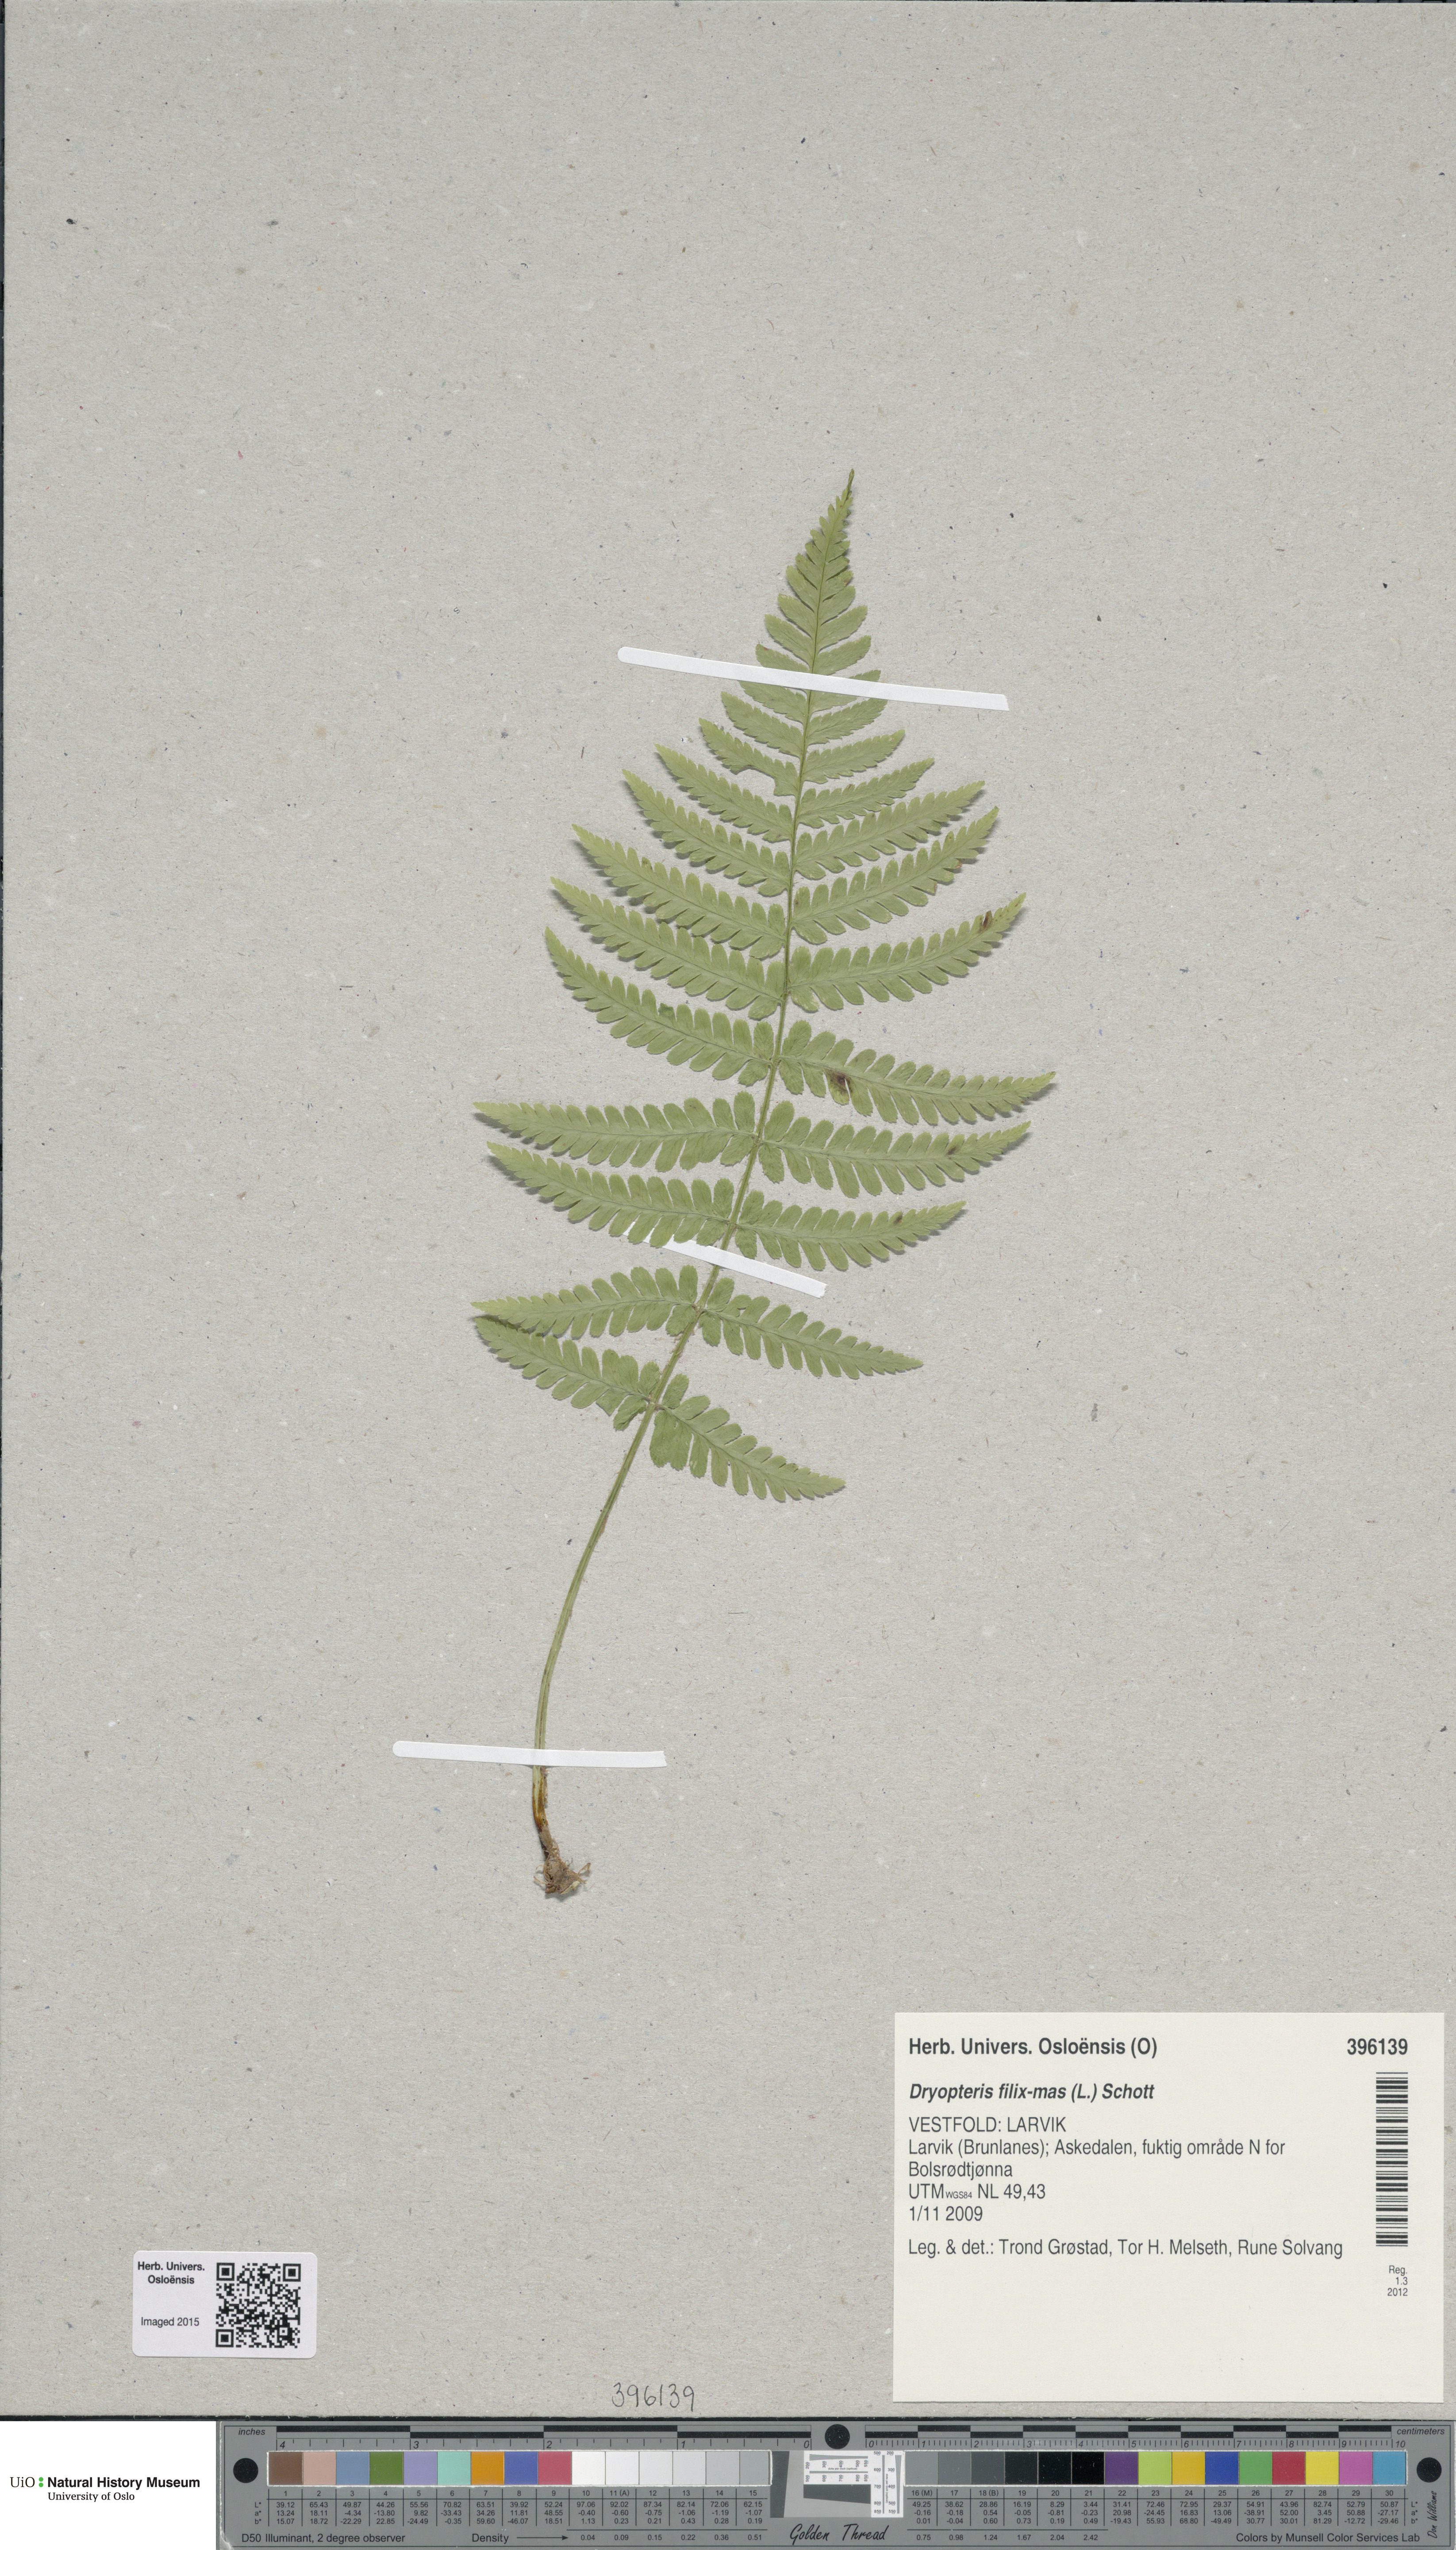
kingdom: Plantae
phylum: Tracheophyta
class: Polypodiopsida
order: Polypodiales
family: Dryopteridaceae
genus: Dryopteris
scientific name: Dryopteris filix-mas
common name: Male fern
